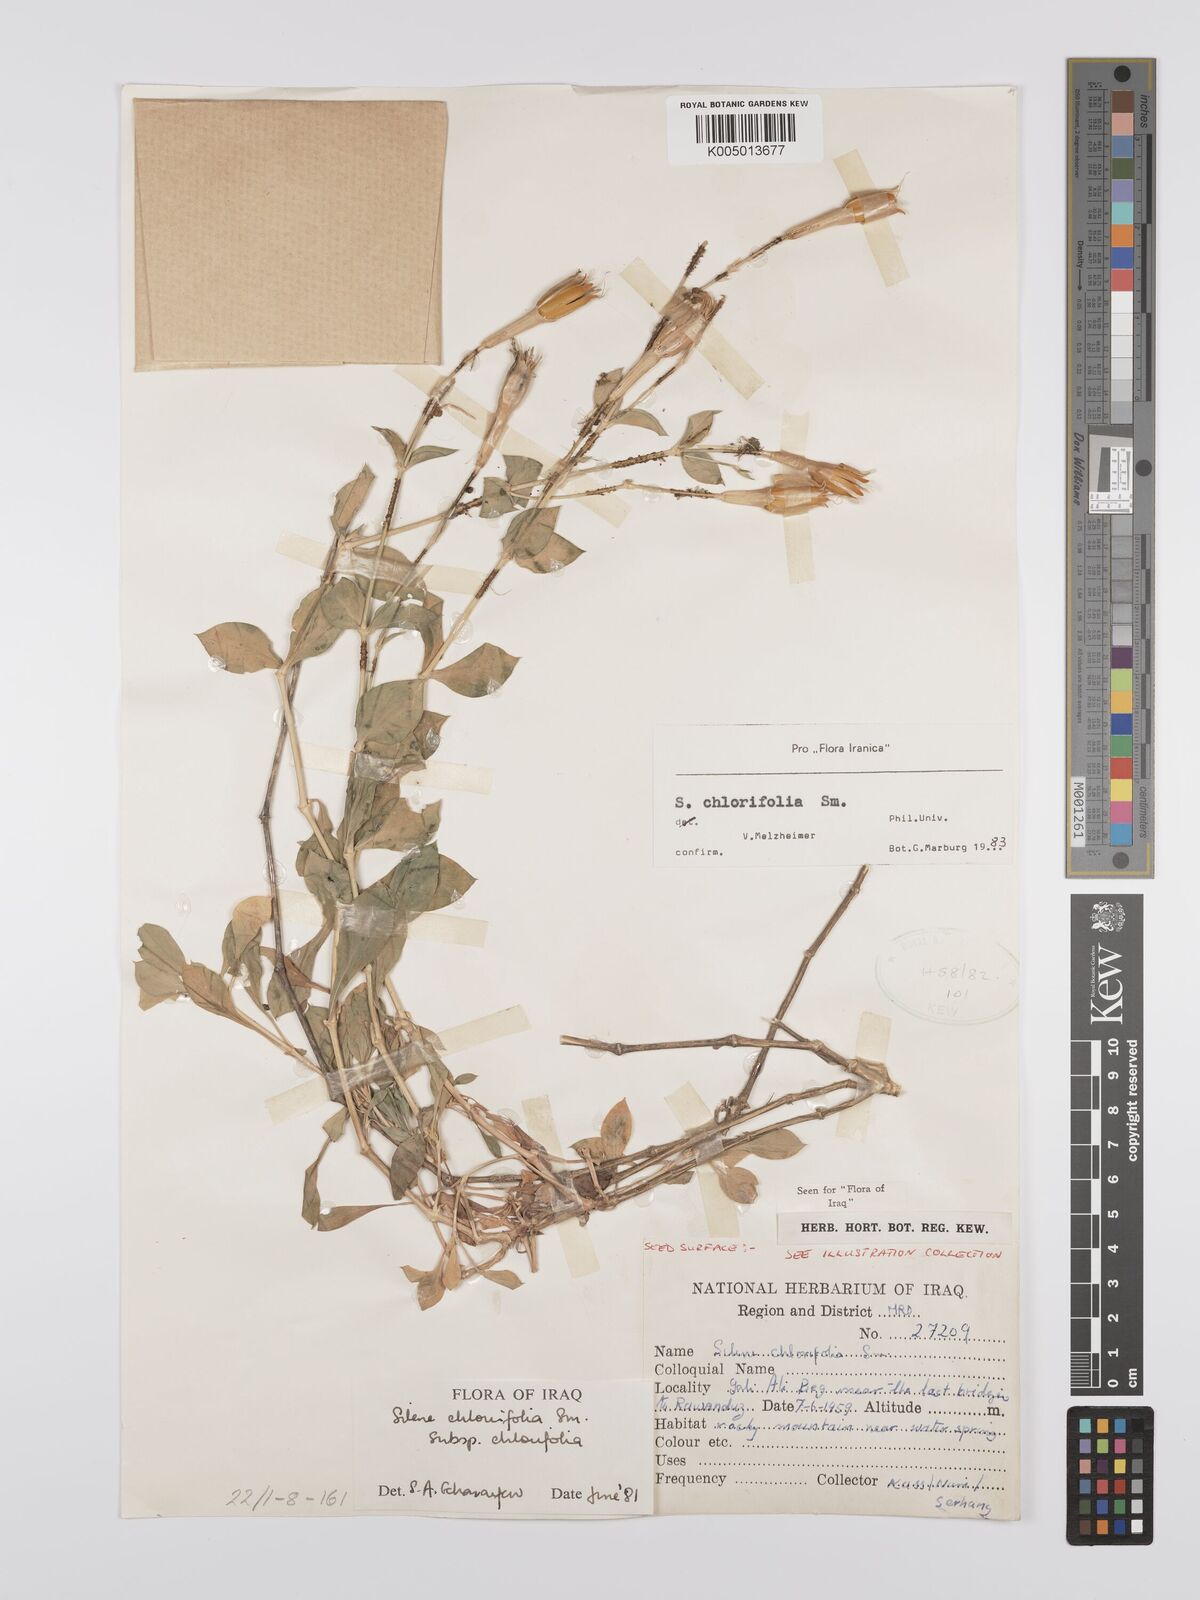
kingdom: Plantae
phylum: Tracheophyta
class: Magnoliopsida
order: Caryophyllales
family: Caryophyllaceae
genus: Silene
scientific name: Silene chlorifolia
